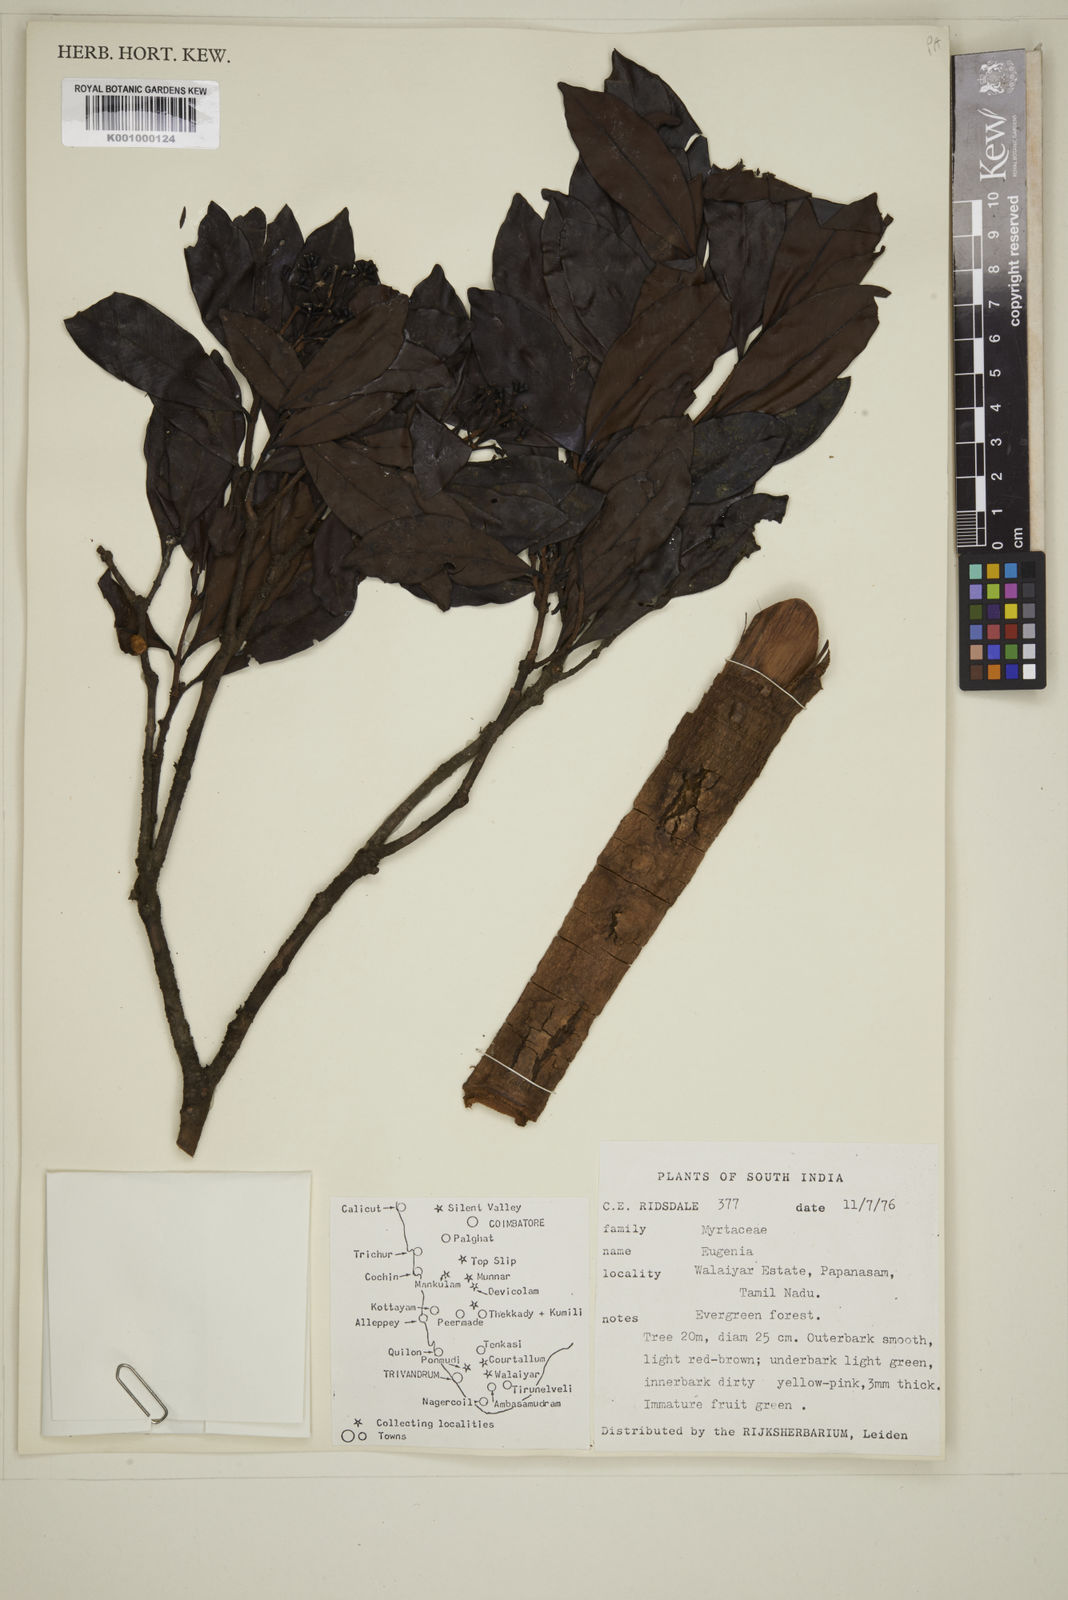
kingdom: Plantae
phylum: Tracheophyta
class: Magnoliopsida
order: Myrtales
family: Myrtaceae
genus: Eugenia
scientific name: Eugenia
